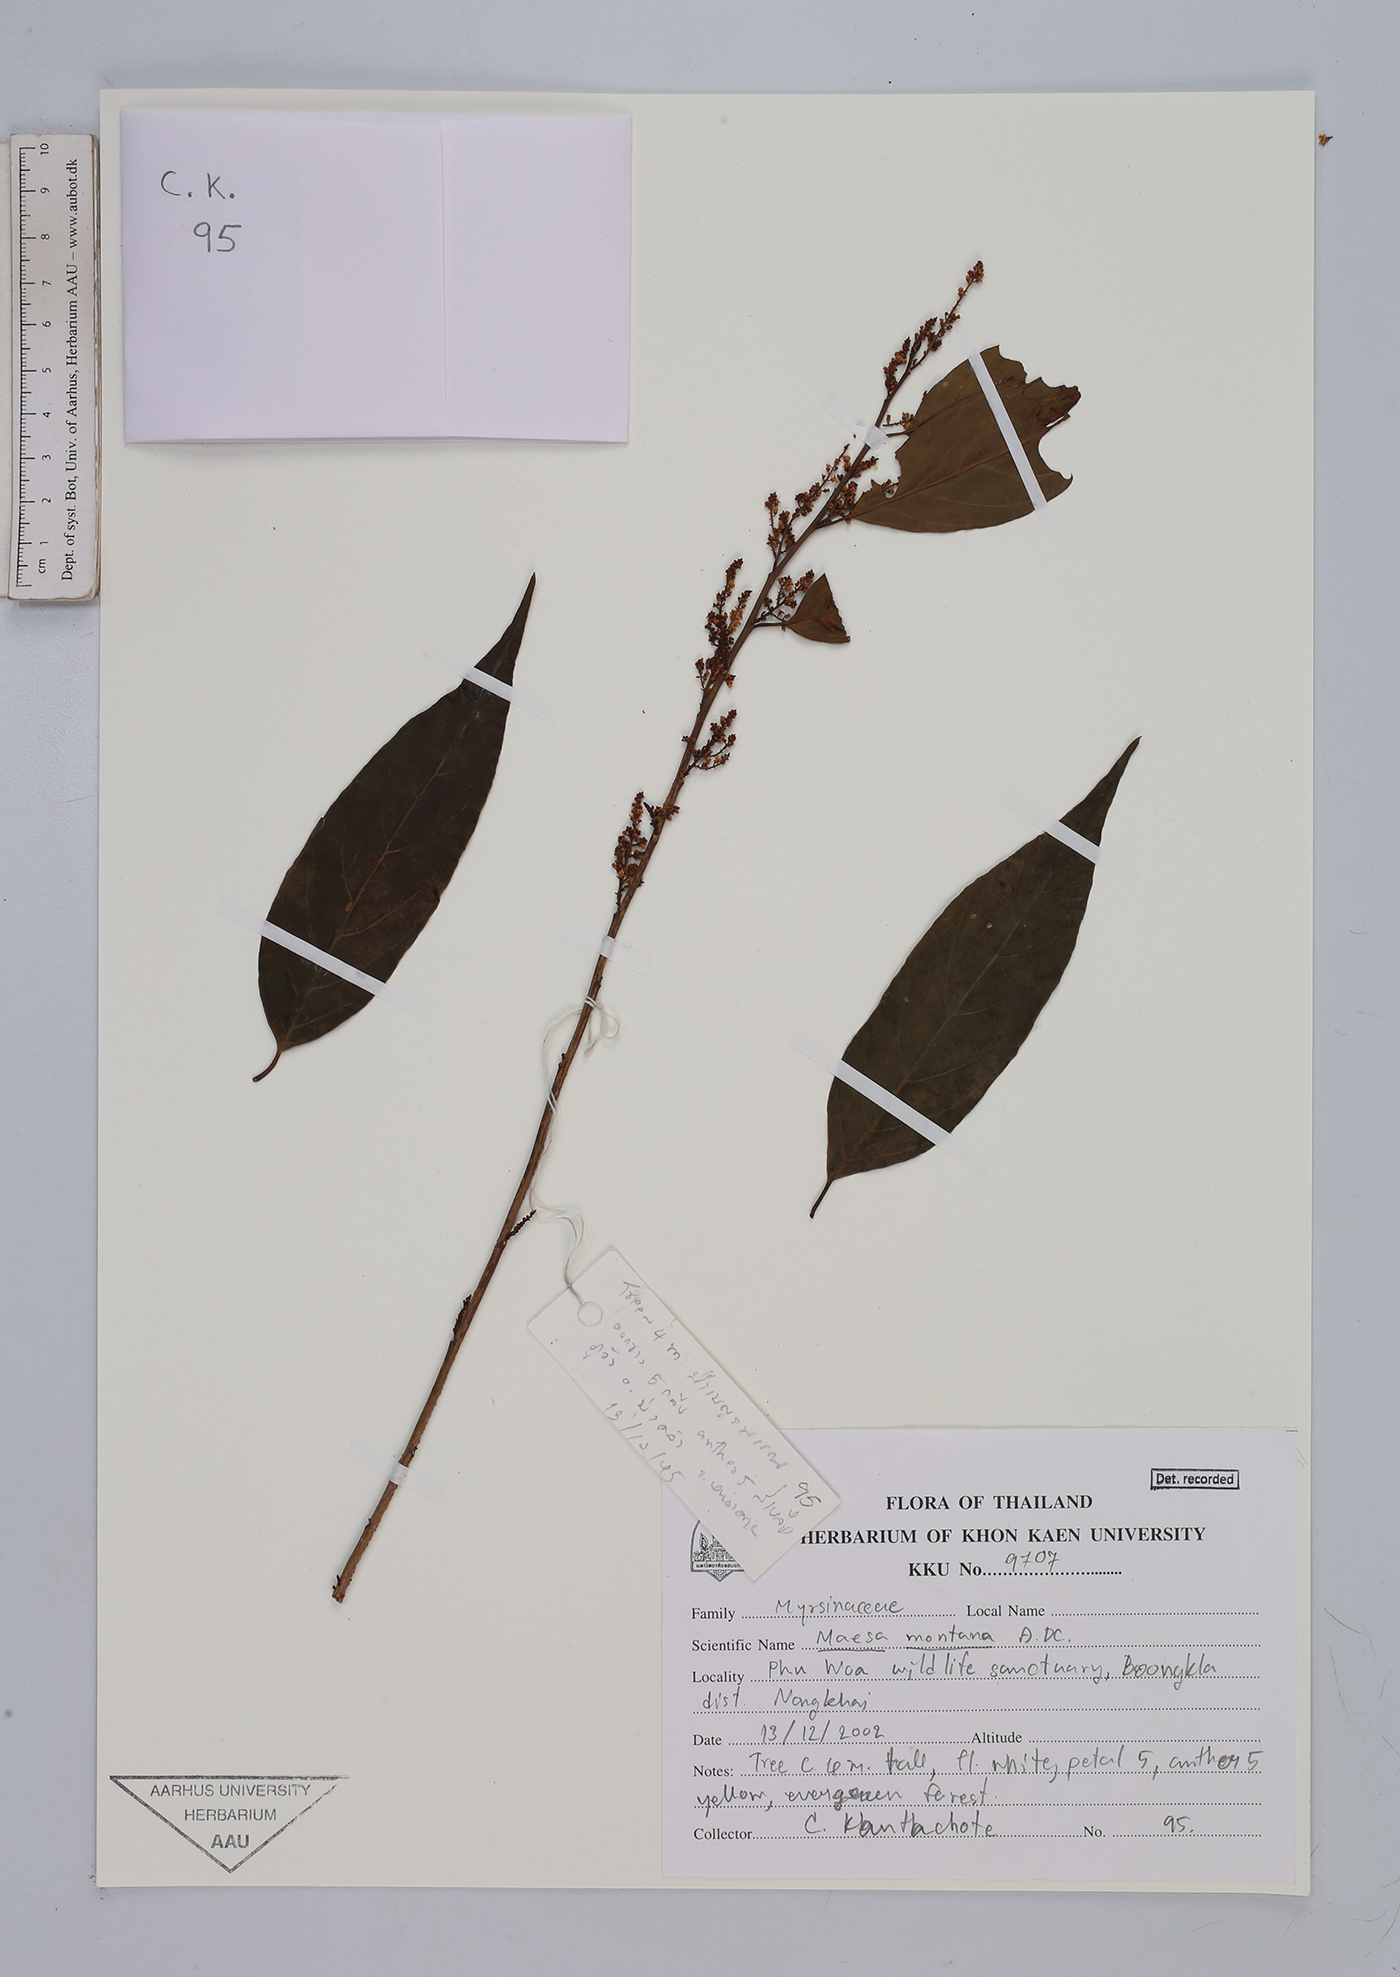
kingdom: Plantae
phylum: Tracheophyta
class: Magnoliopsida
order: Ericales
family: Primulaceae
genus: Maesa
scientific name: Maesa montana
